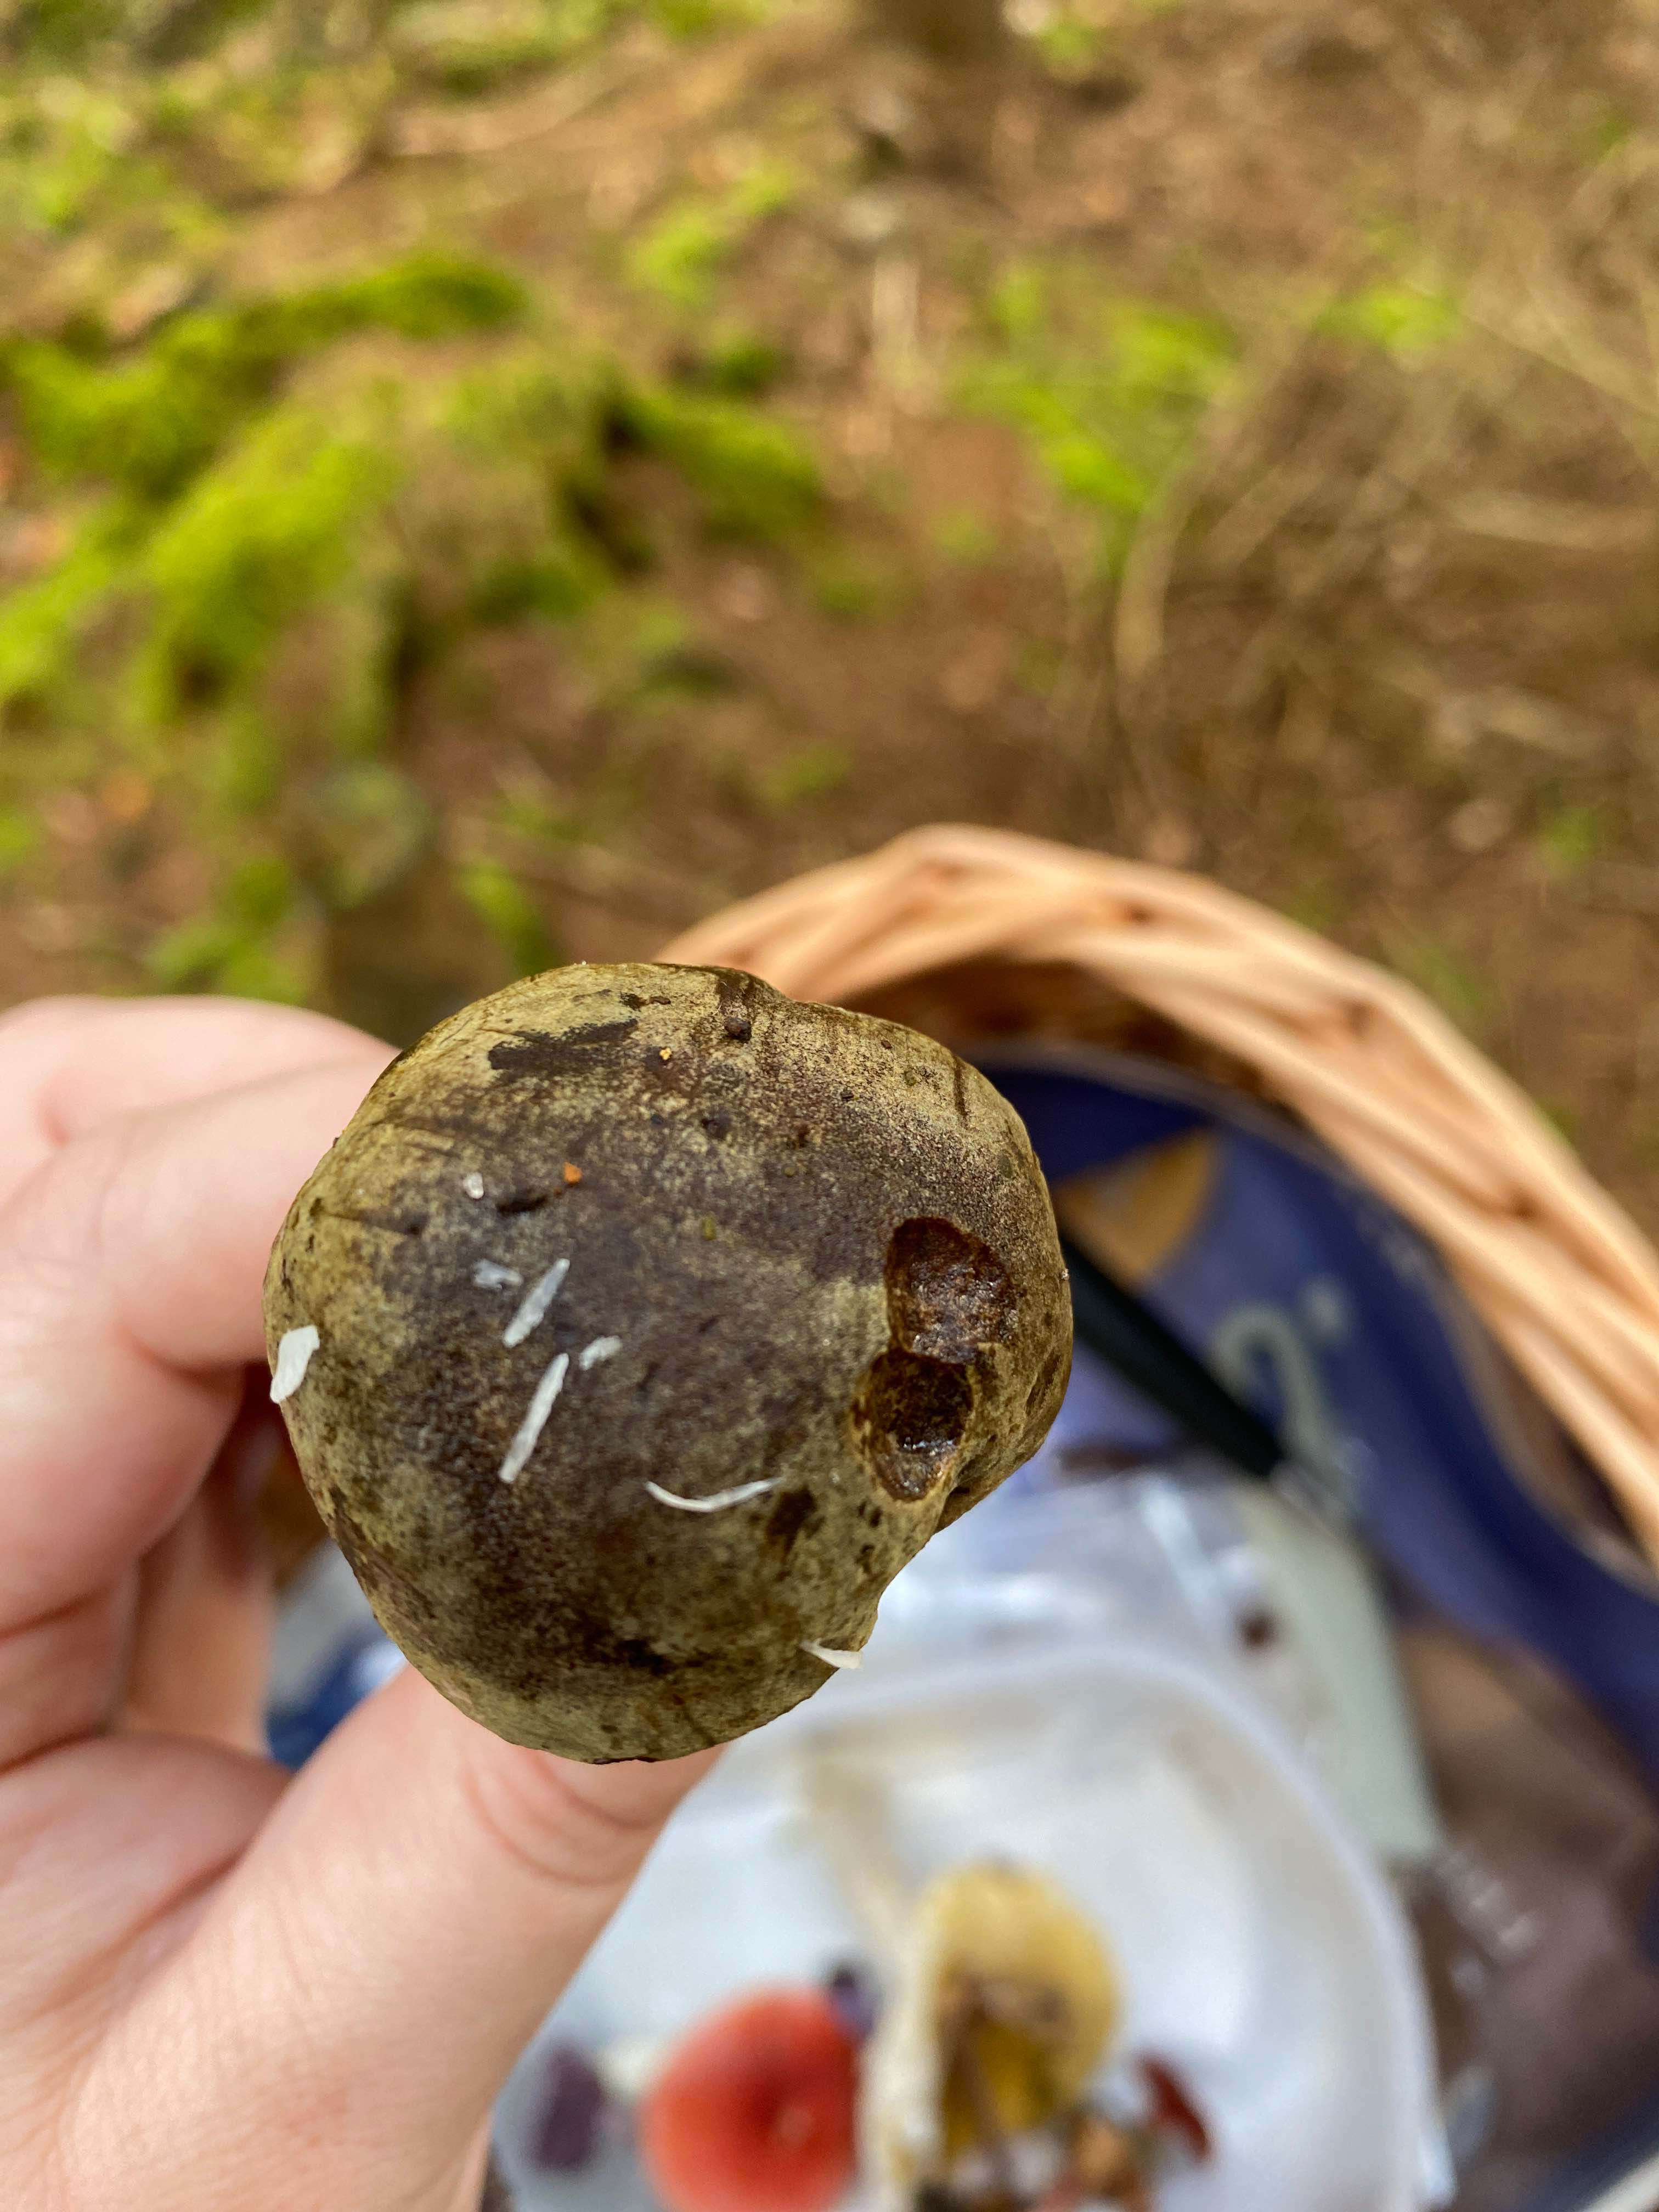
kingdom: Fungi
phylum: Basidiomycota
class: Agaricomycetes
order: Boletales
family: Boletaceae
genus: Xerocomus
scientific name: Xerocomus
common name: filtrørhat
